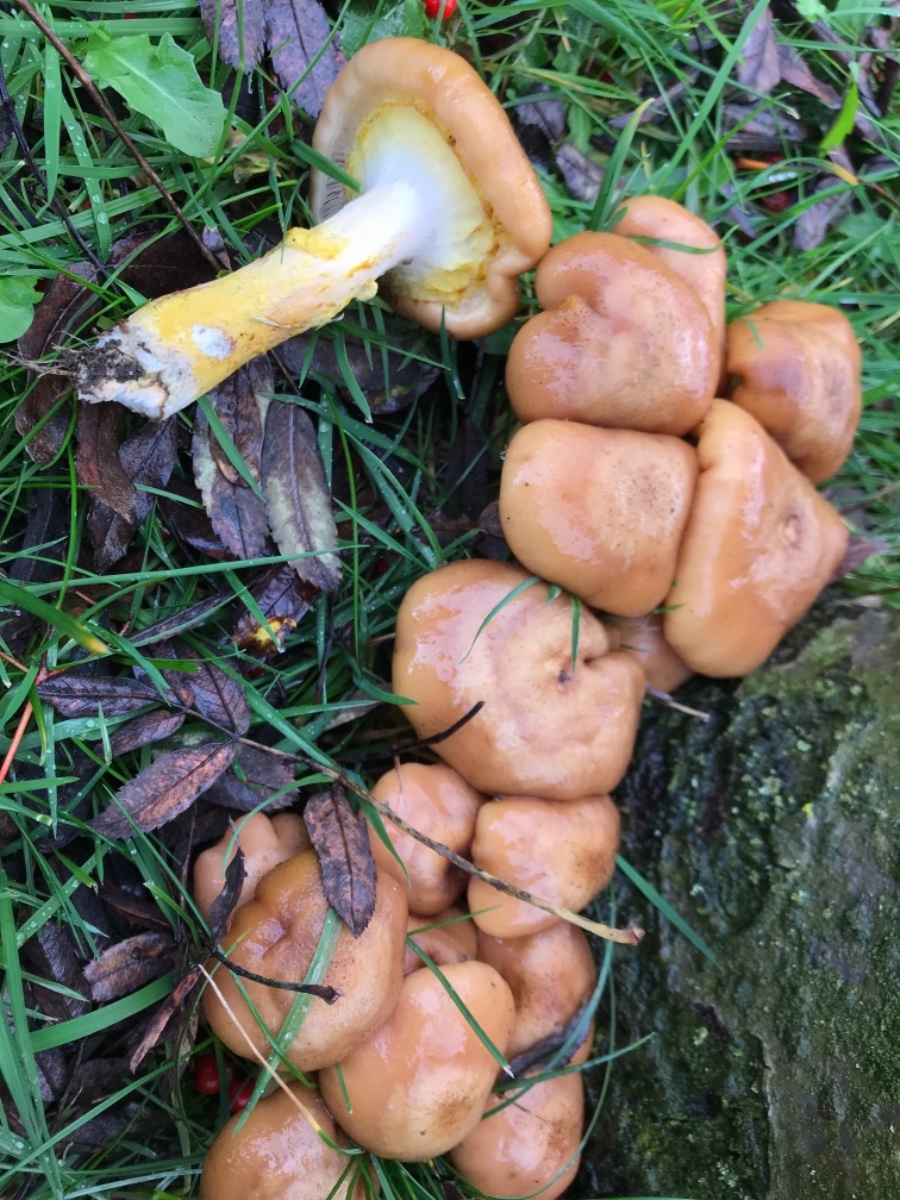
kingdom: Fungi
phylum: Basidiomycota
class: Agaricomycetes
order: Agaricales
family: Physalacriaceae
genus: Armillaria
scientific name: Armillaria lutea
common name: køllestokket honningsvamp
